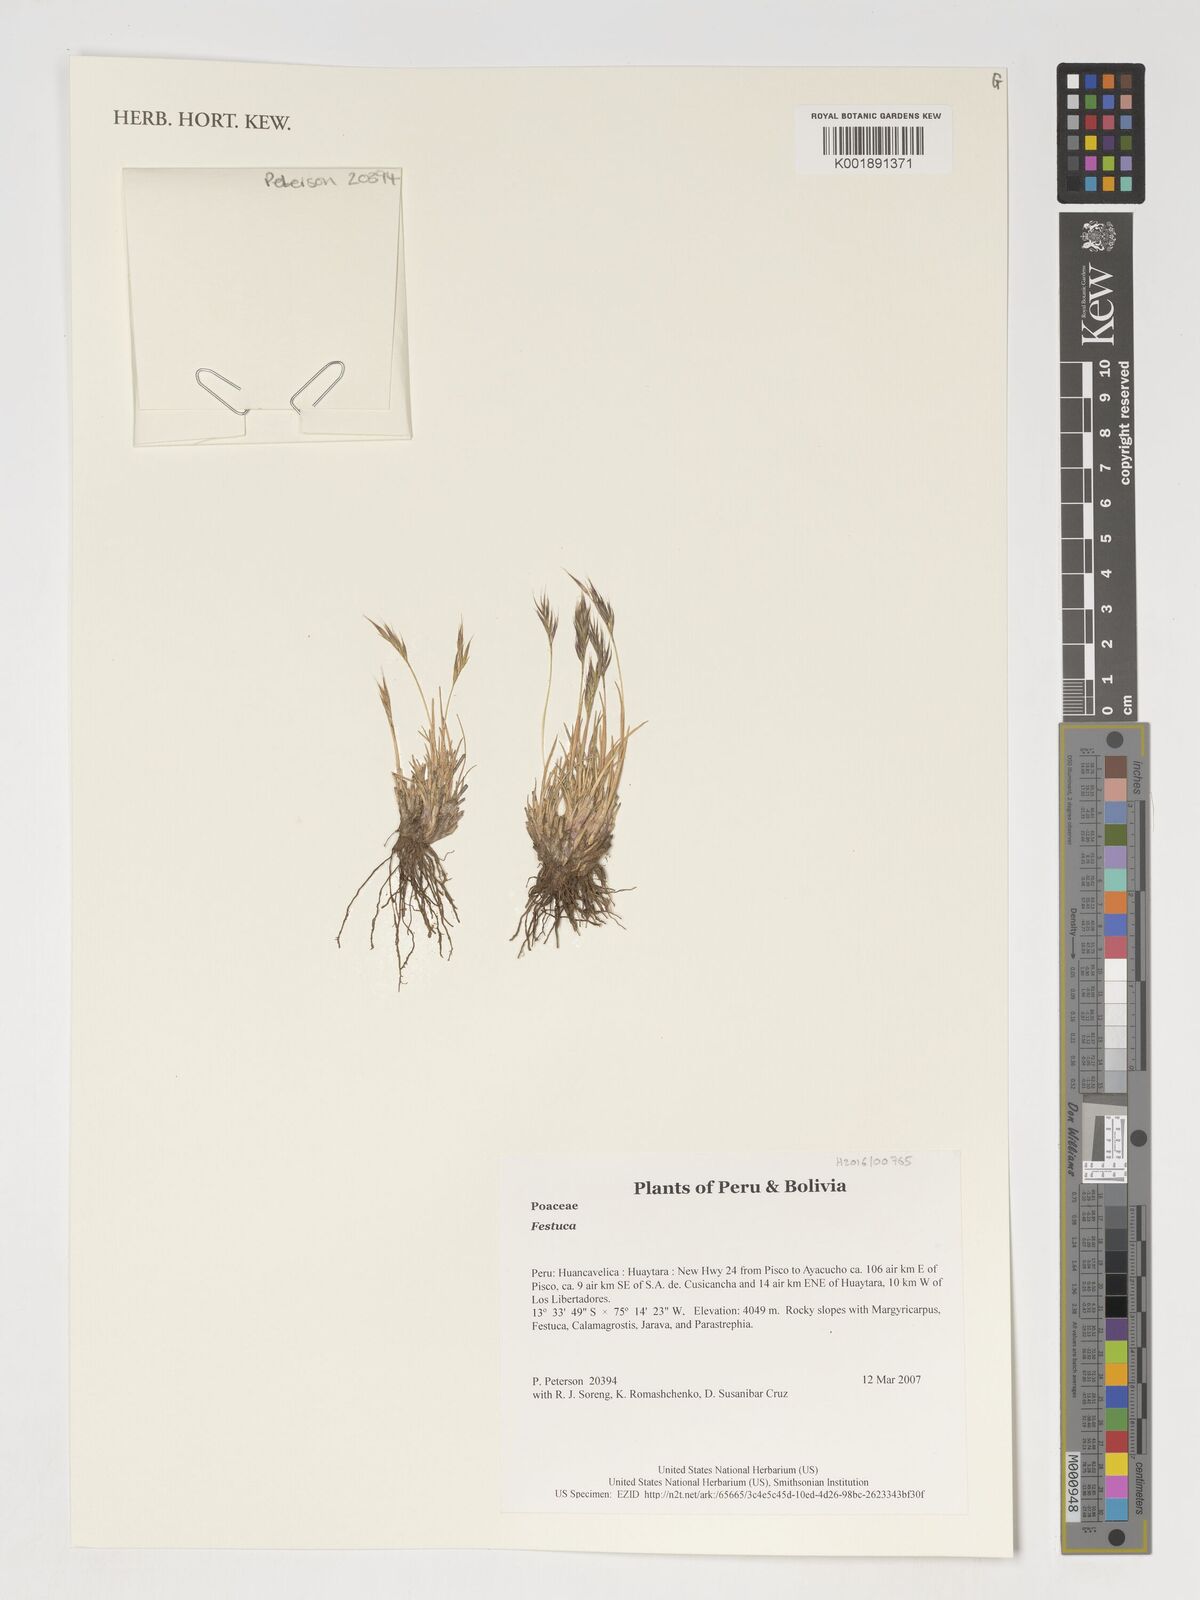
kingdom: Plantae
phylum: Tracheophyta
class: Liliopsida
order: Poales
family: Poaceae
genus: Festuca
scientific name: Festuca
